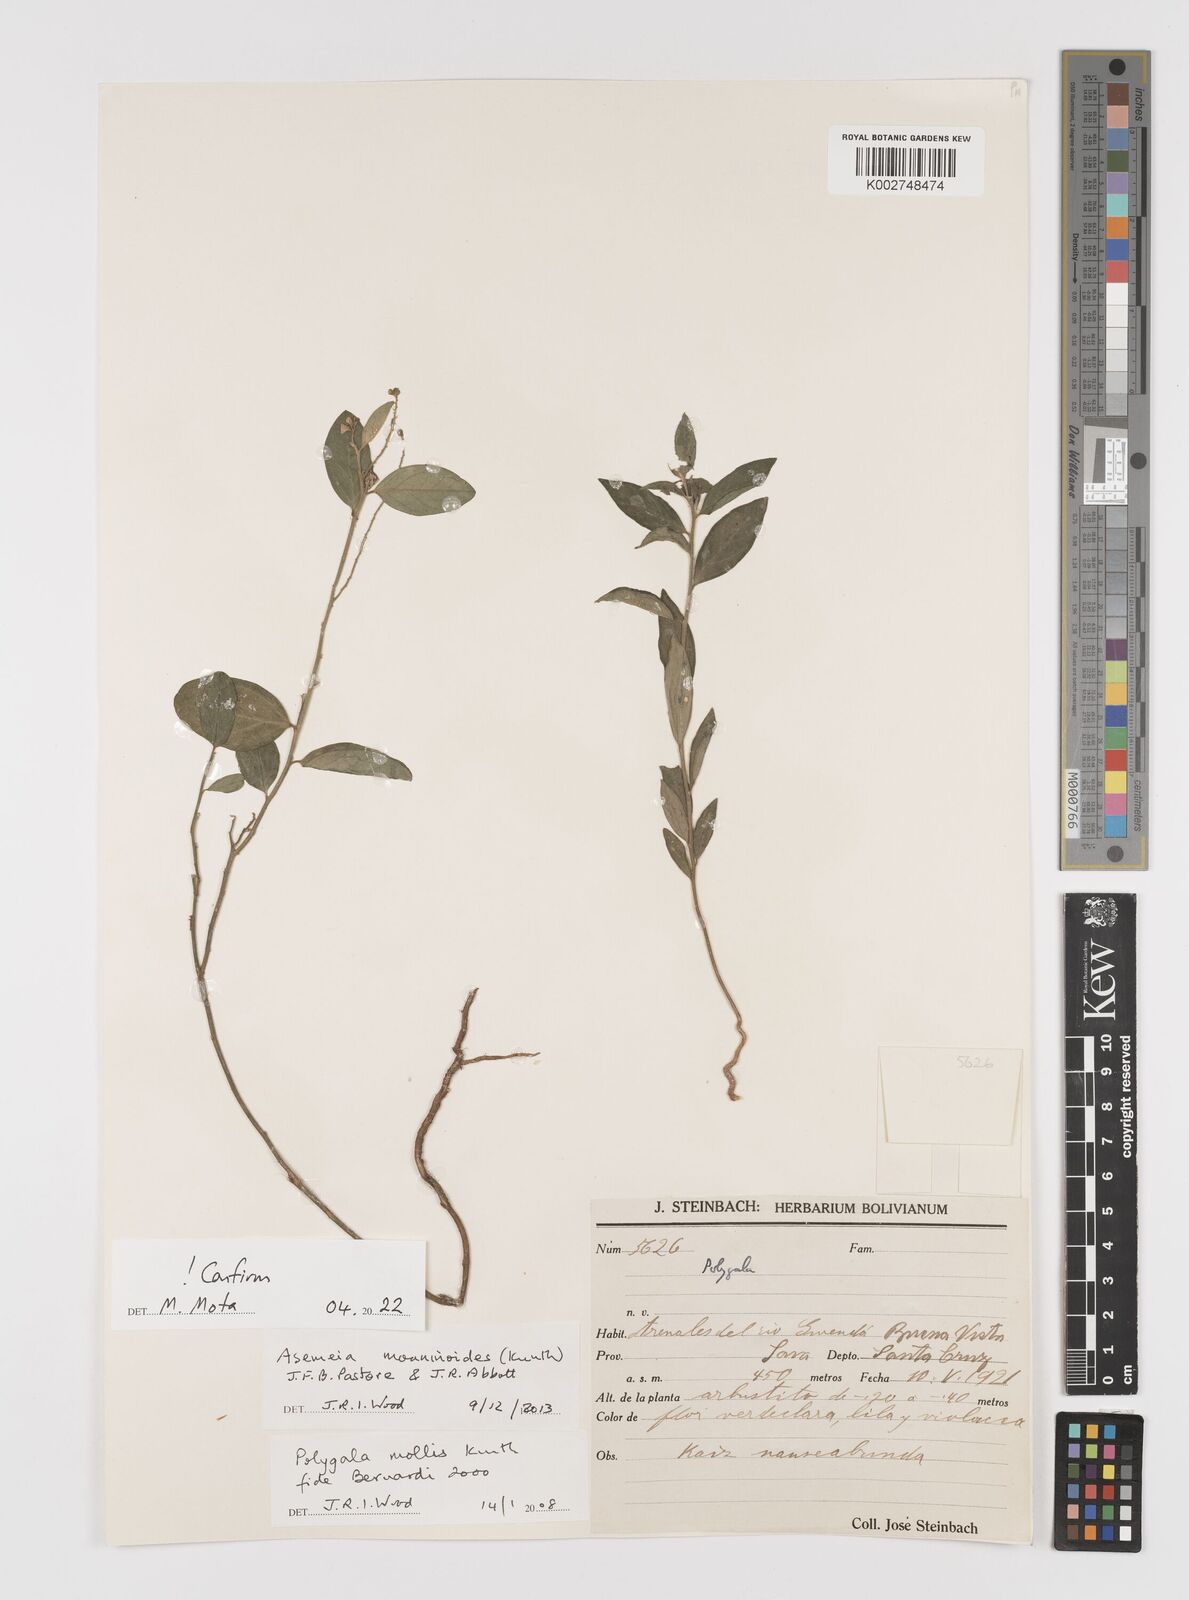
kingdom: Plantae
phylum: Tracheophyta
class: Magnoliopsida
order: Fabales
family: Polygalaceae
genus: Asemeia
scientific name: Asemeia monninoides
